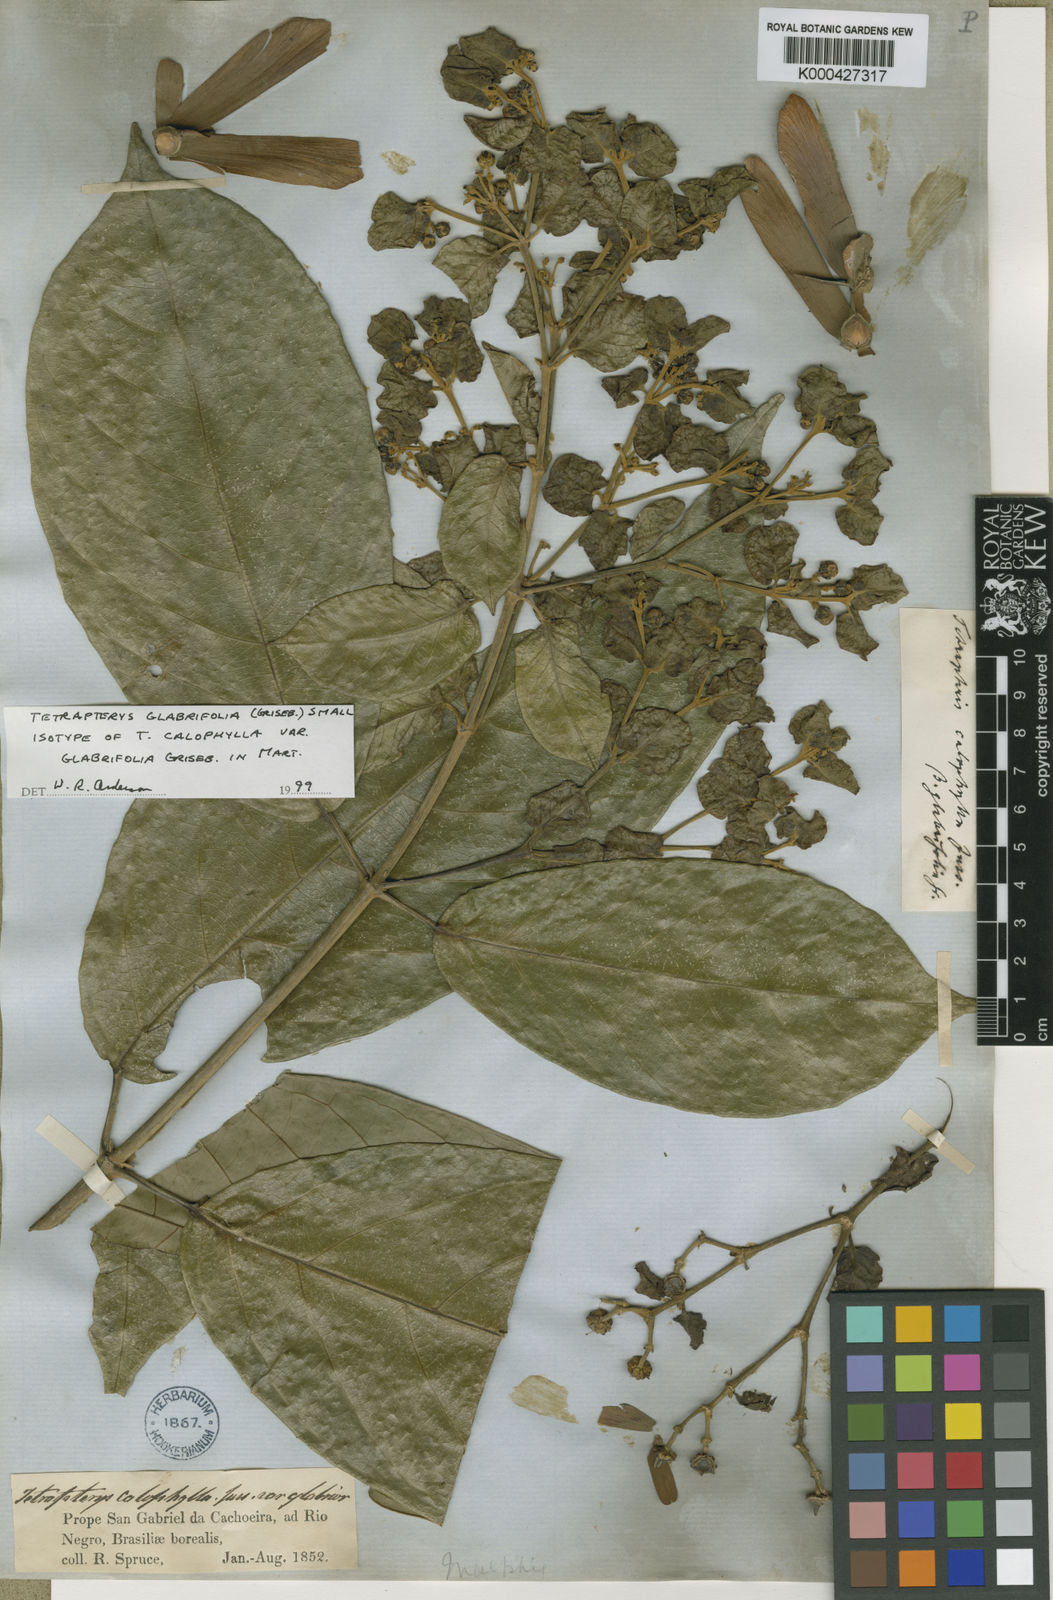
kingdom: Plantae
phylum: Tracheophyta
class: Magnoliopsida
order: Malpighiales
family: Malpighiaceae
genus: Tetrapterys
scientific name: Tetrapterys tinifolia
